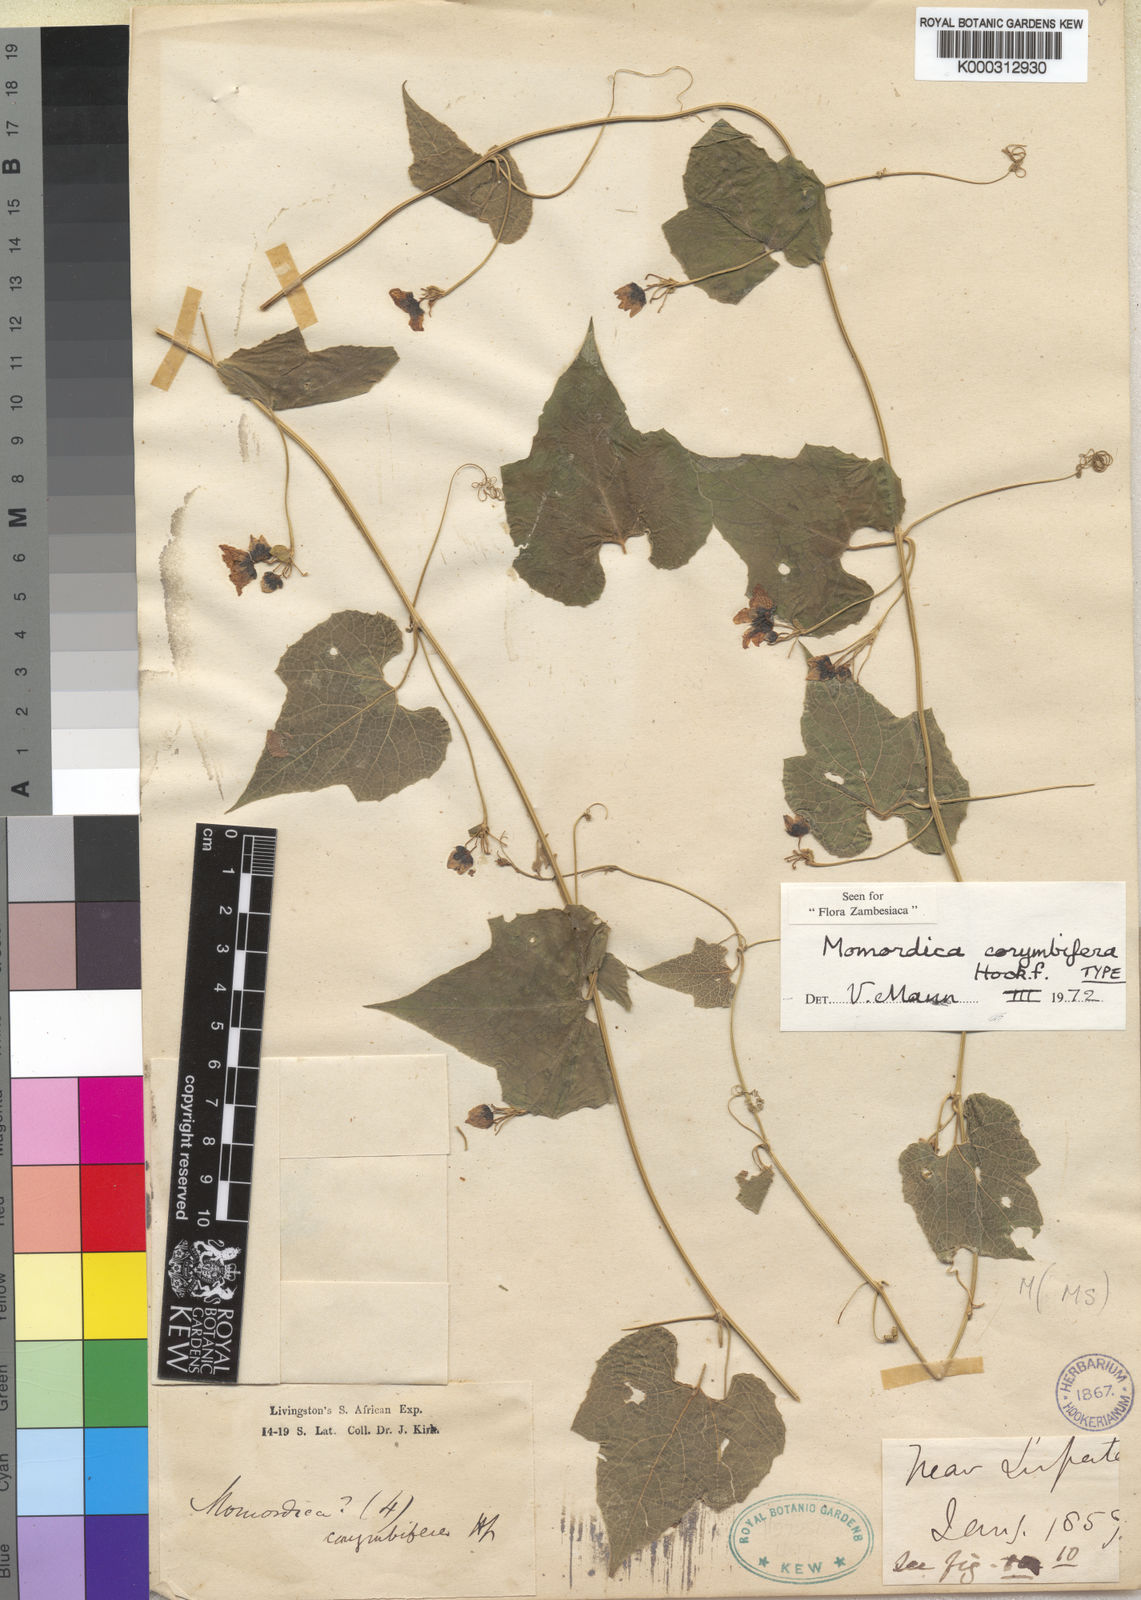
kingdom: Plantae
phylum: Tracheophyta
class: Magnoliopsida
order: Cucurbitales
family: Cucurbitaceae
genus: Momordica
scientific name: Momordica corymbifera
